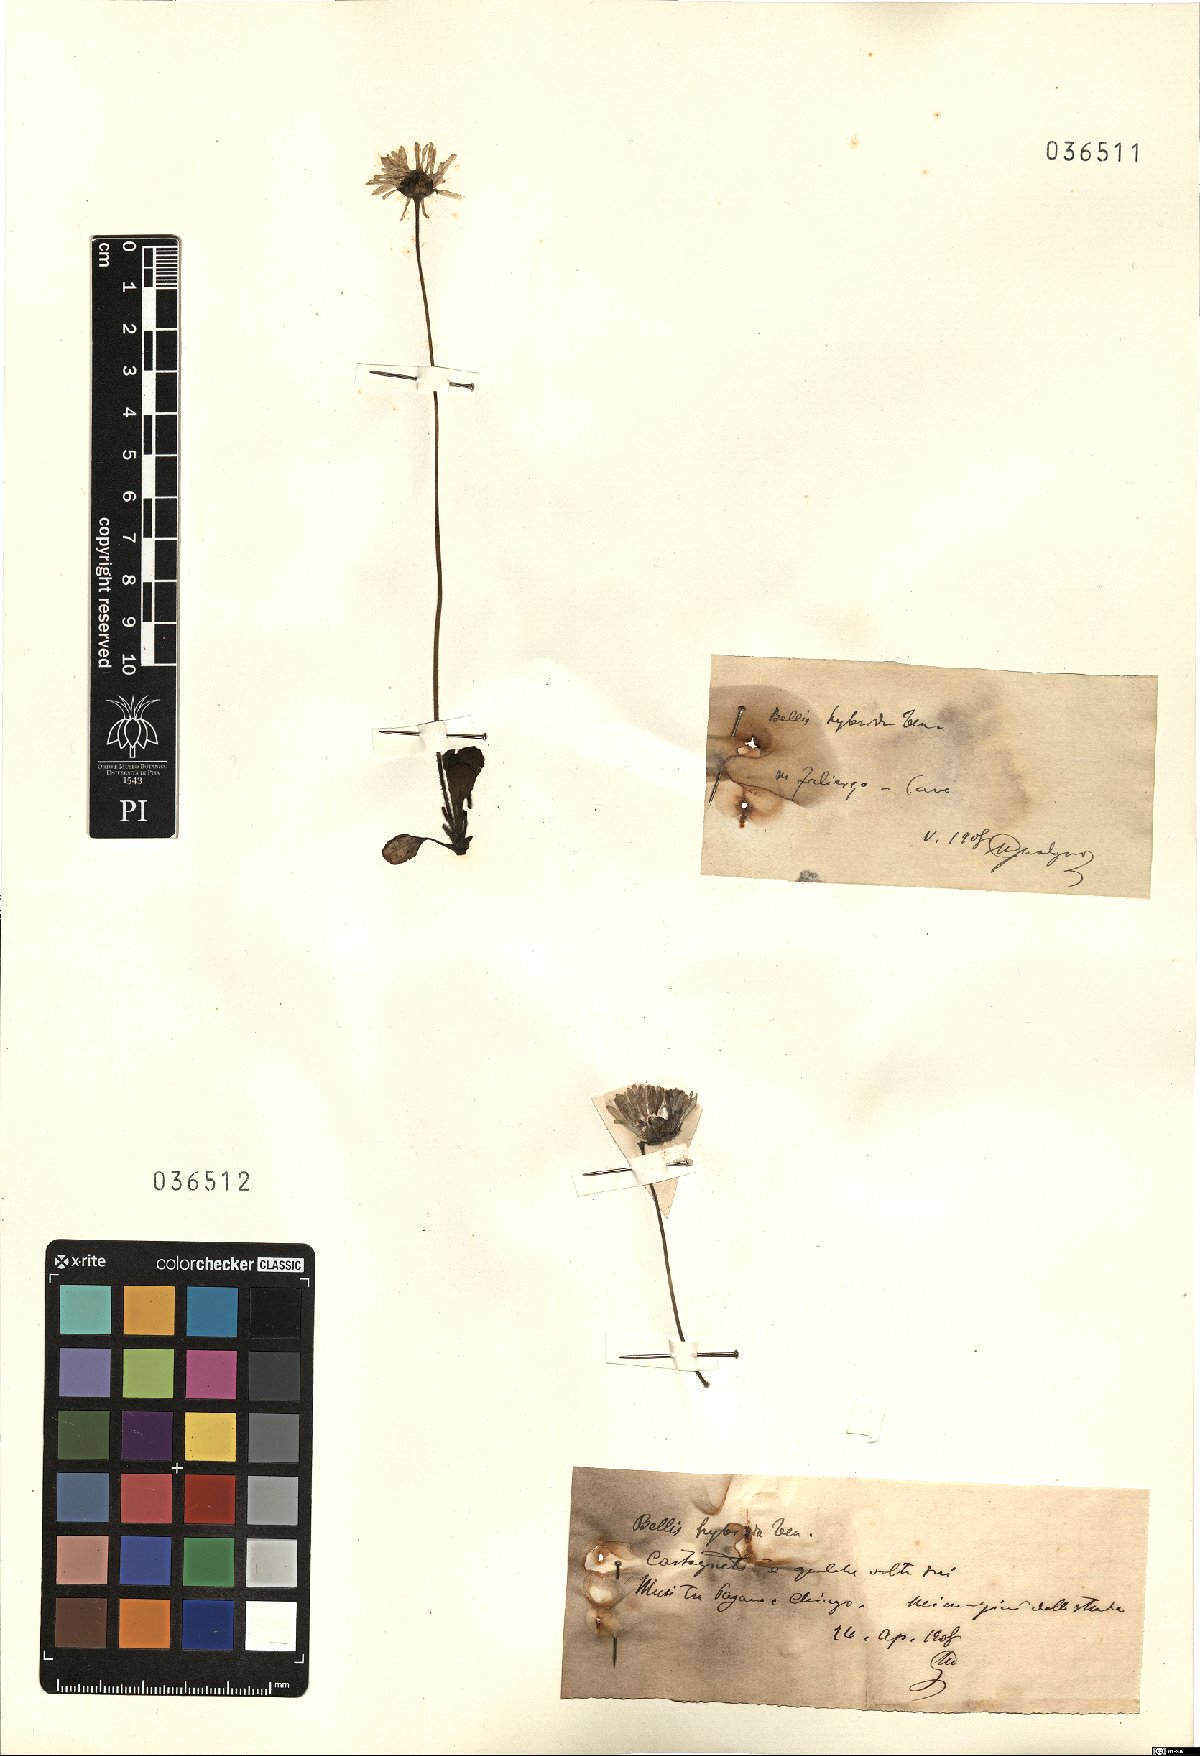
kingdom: Plantae
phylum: Tracheophyta
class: Magnoliopsida
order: Asterales
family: Asteraceae
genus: Bellis
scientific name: Bellis perennis
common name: Lawndaisy
